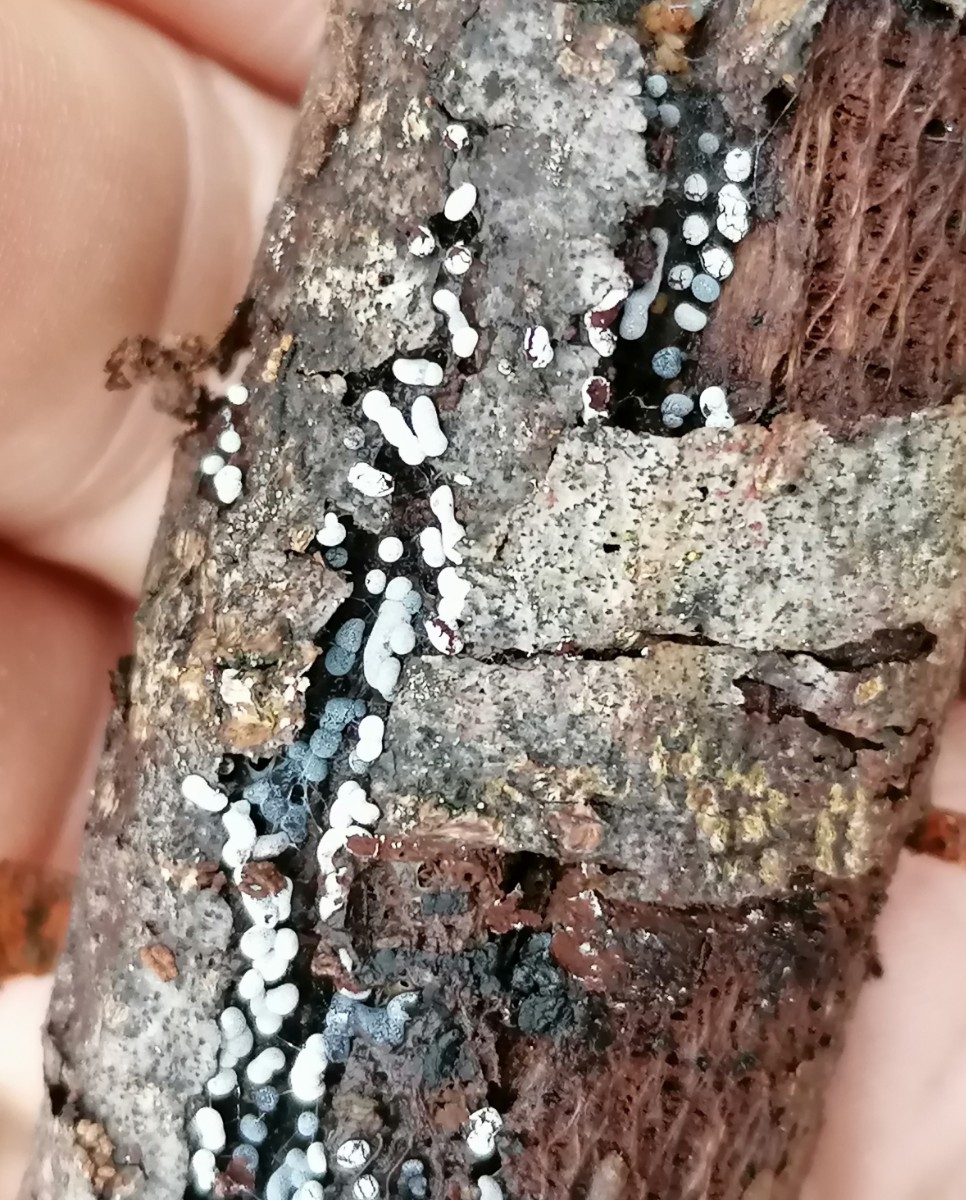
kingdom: Protozoa
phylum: Mycetozoa
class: Myxomycetes
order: Physarales
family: Didymiaceae
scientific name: Didymiaceae
